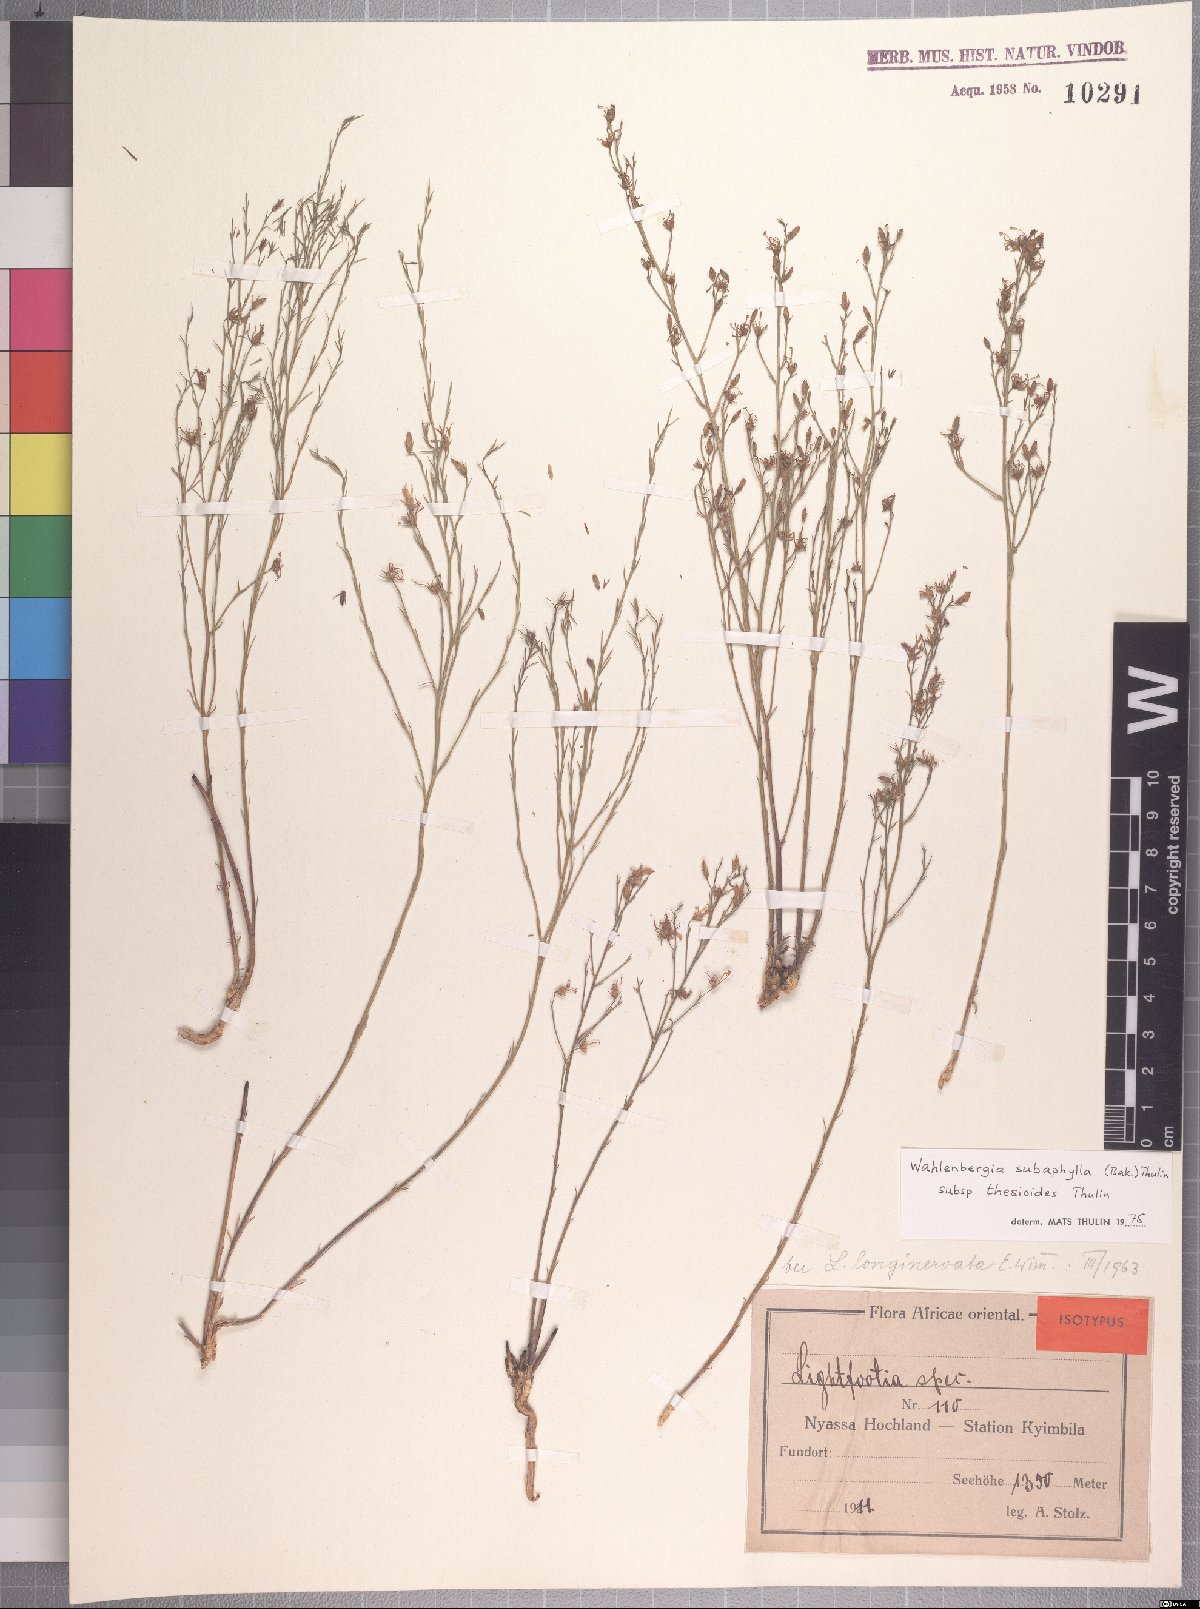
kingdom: Plantae
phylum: Tracheophyta
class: Magnoliopsida
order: Asterales
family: Campanulaceae
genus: Wahlenbergia
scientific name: Wahlenbergia subaphylla
